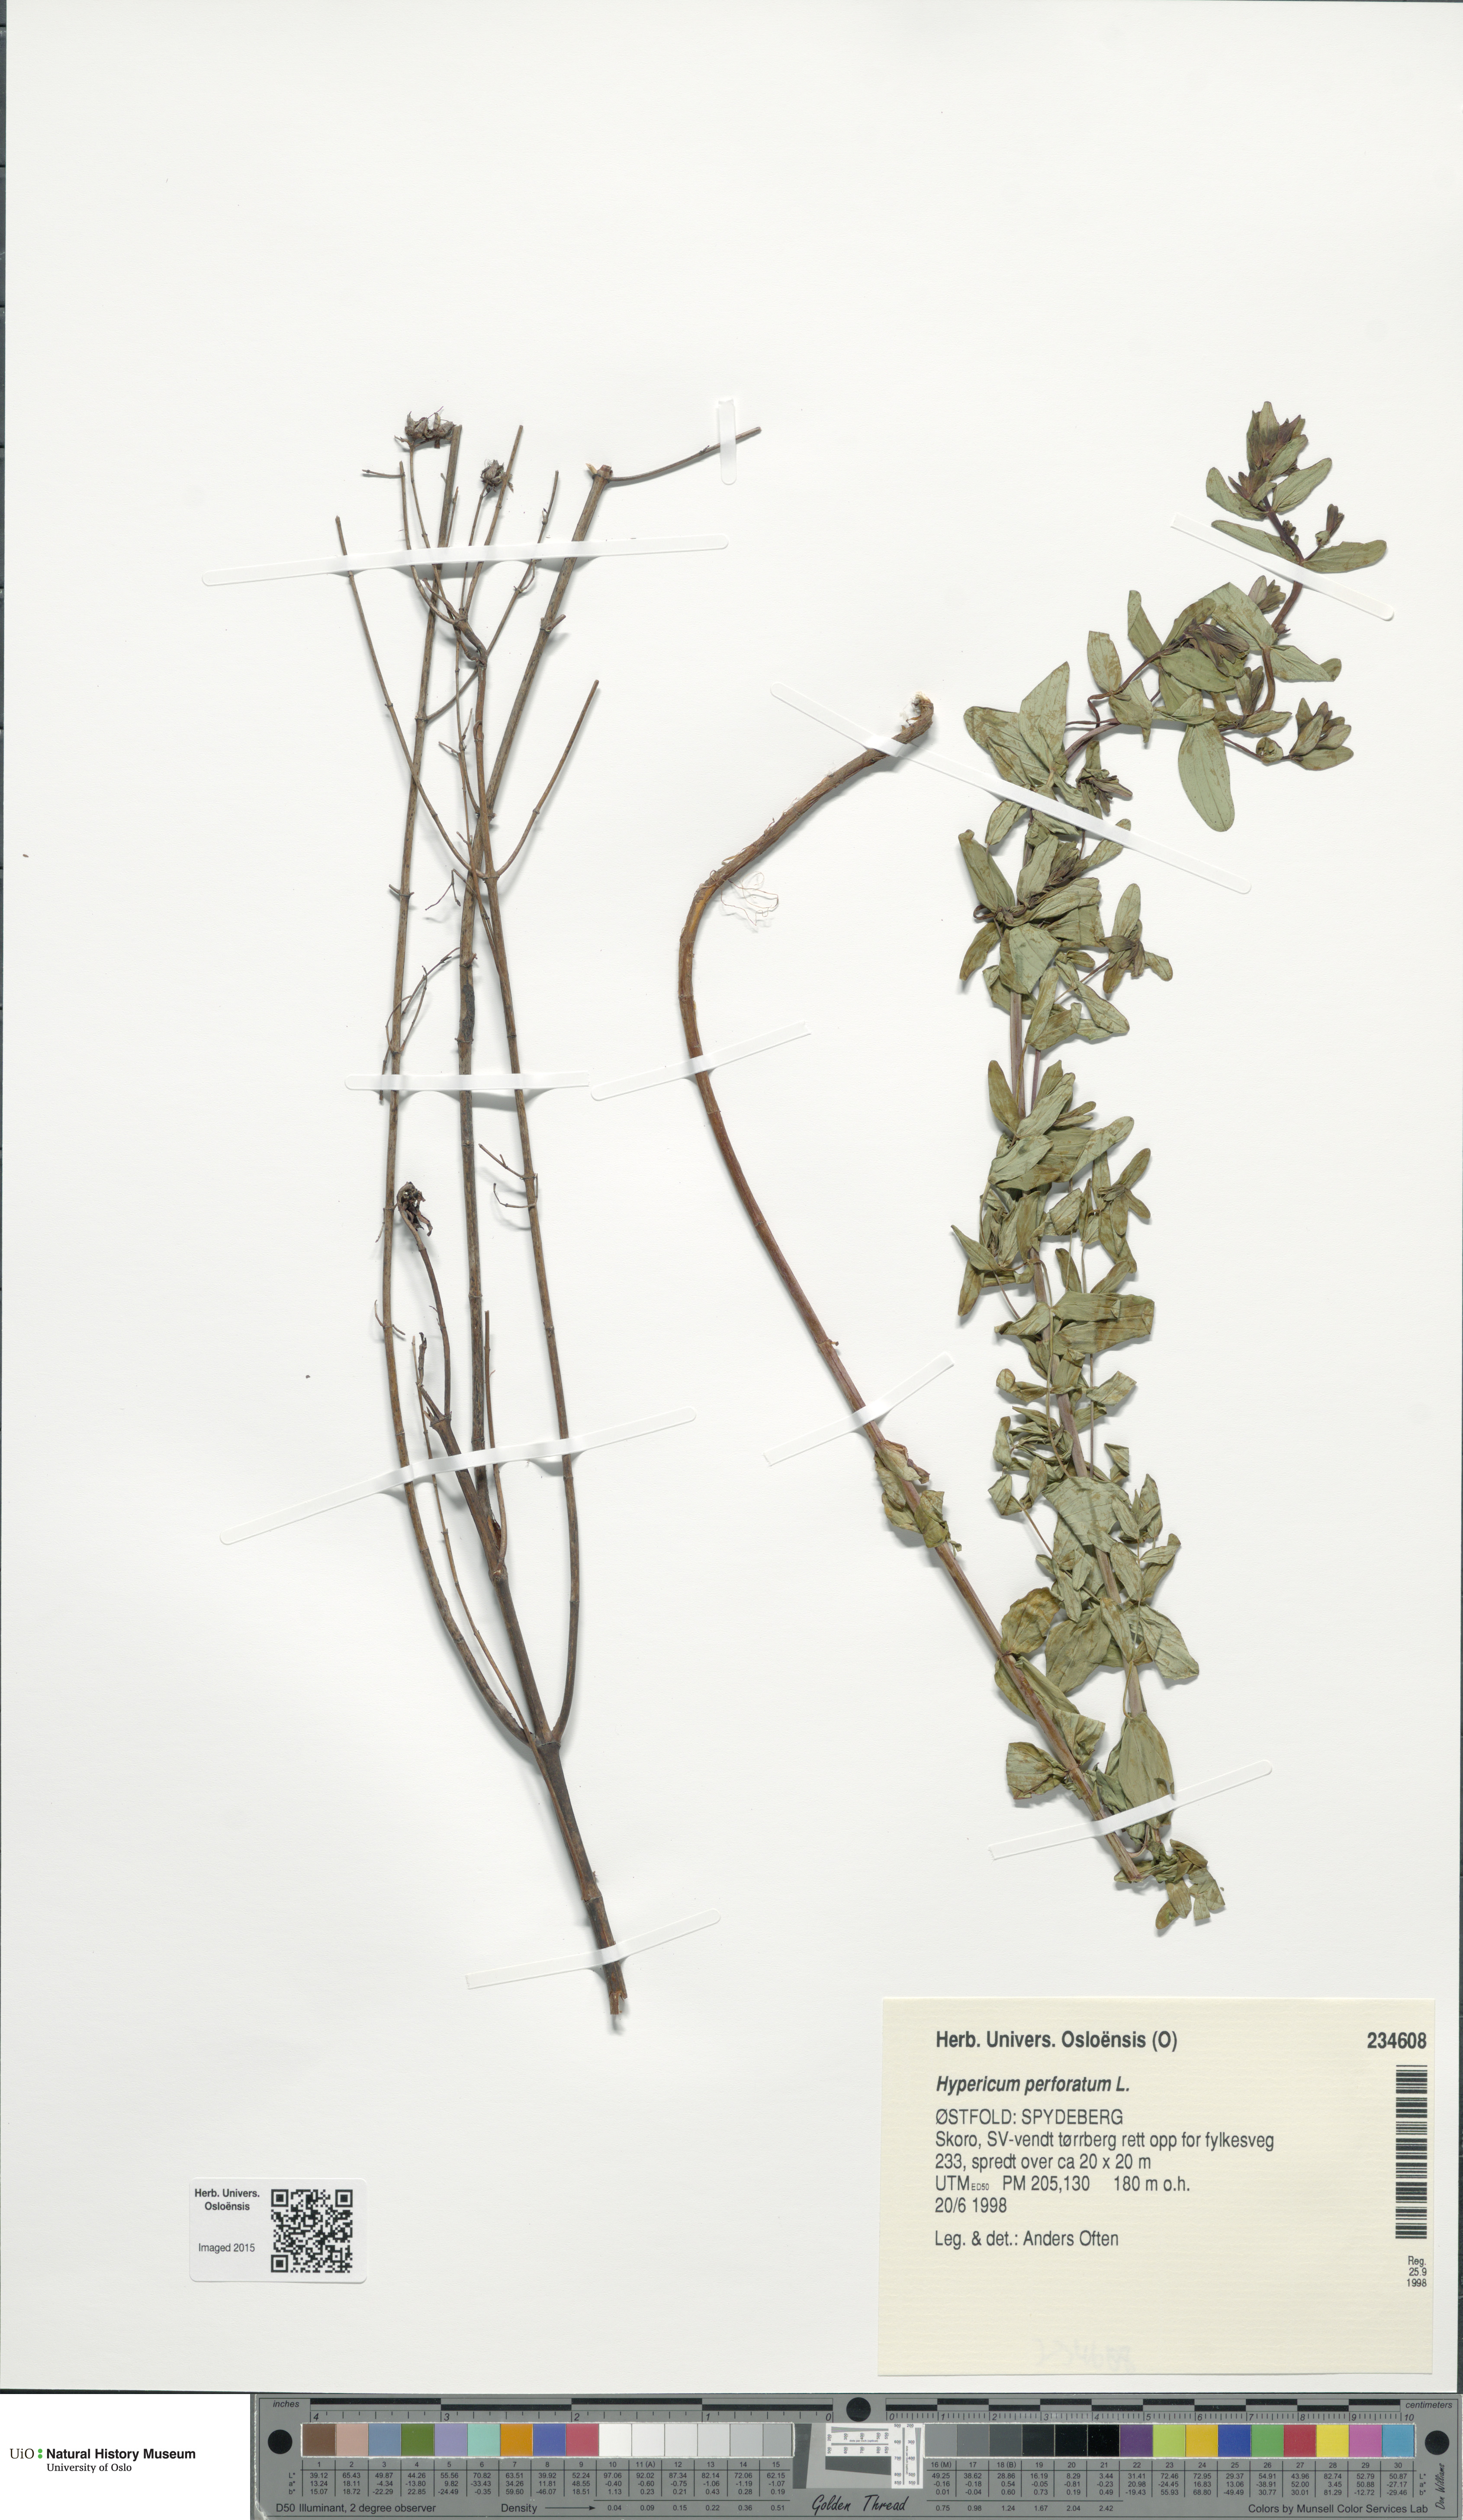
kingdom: Plantae
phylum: Tracheophyta
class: Magnoliopsida
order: Malpighiales
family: Hypericaceae
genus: Hypericum
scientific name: Hypericum perforatum
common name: Common st. johnswort
